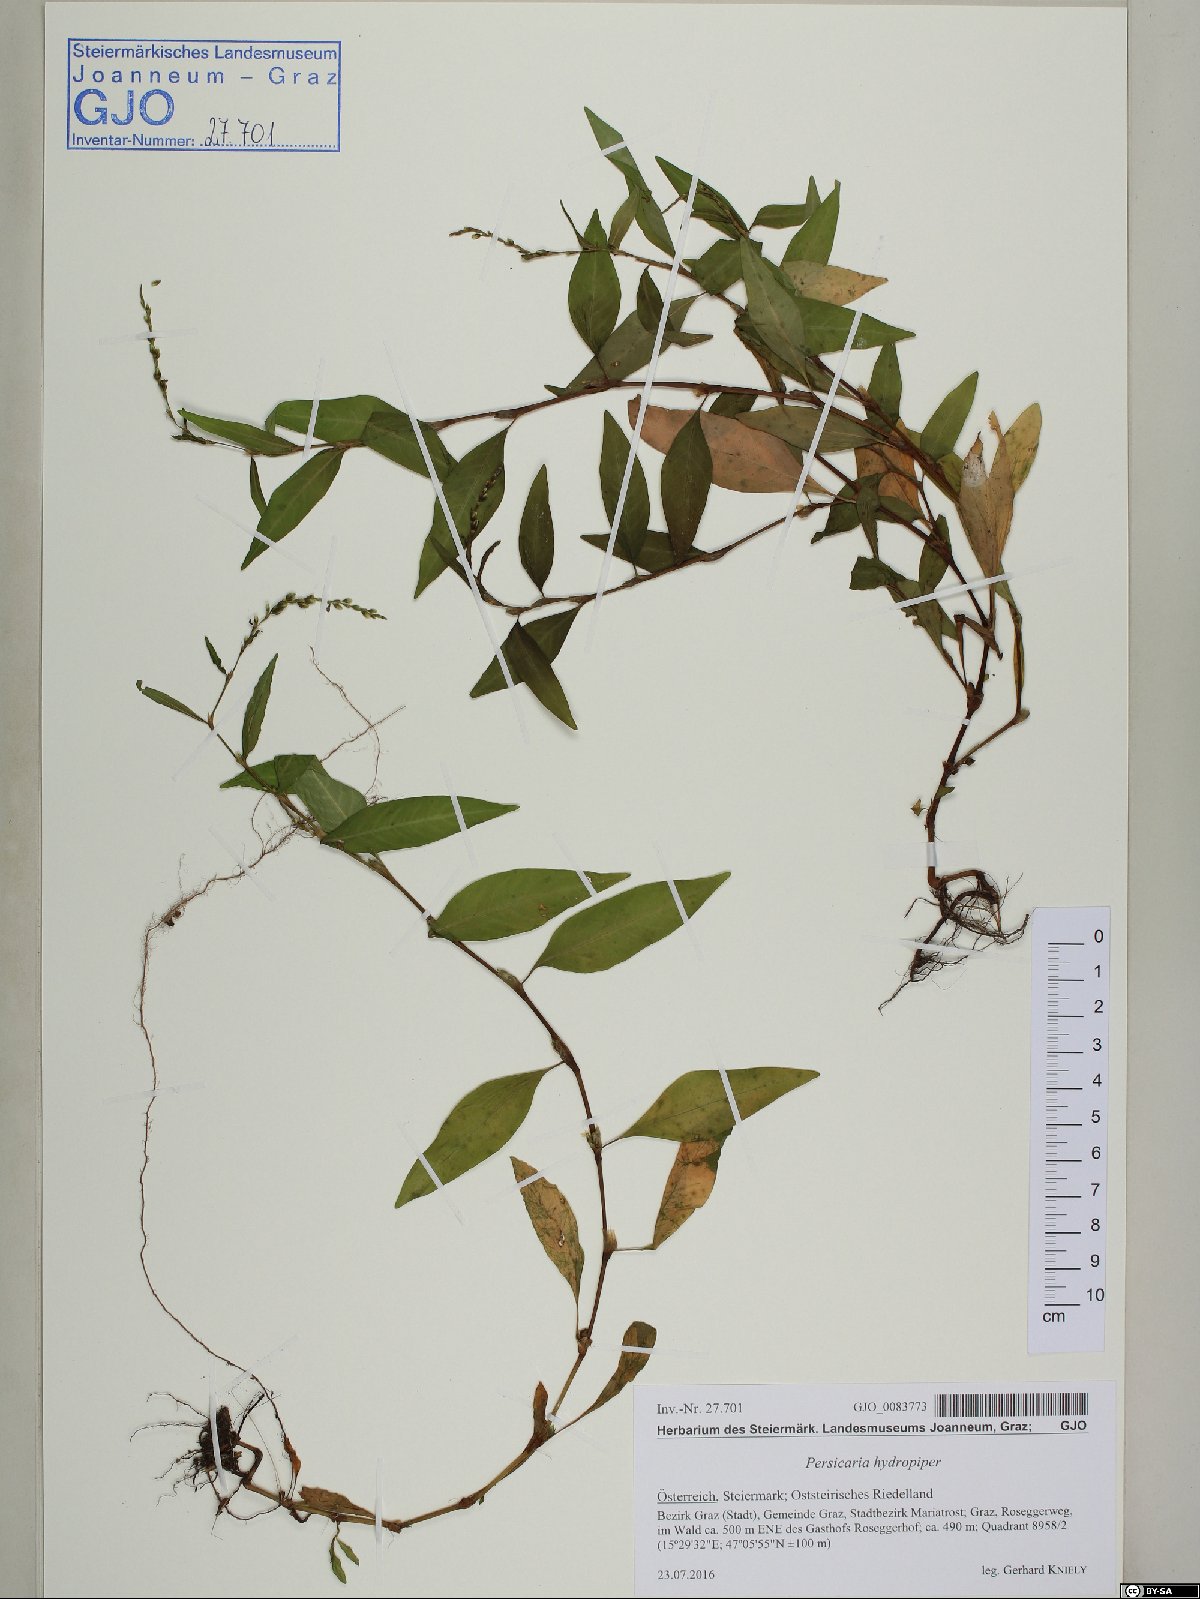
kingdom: Plantae
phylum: Tracheophyta
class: Magnoliopsida
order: Caryophyllales
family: Polygonaceae
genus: Persicaria
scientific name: Persicaria hydropiper
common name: Water-pepper
